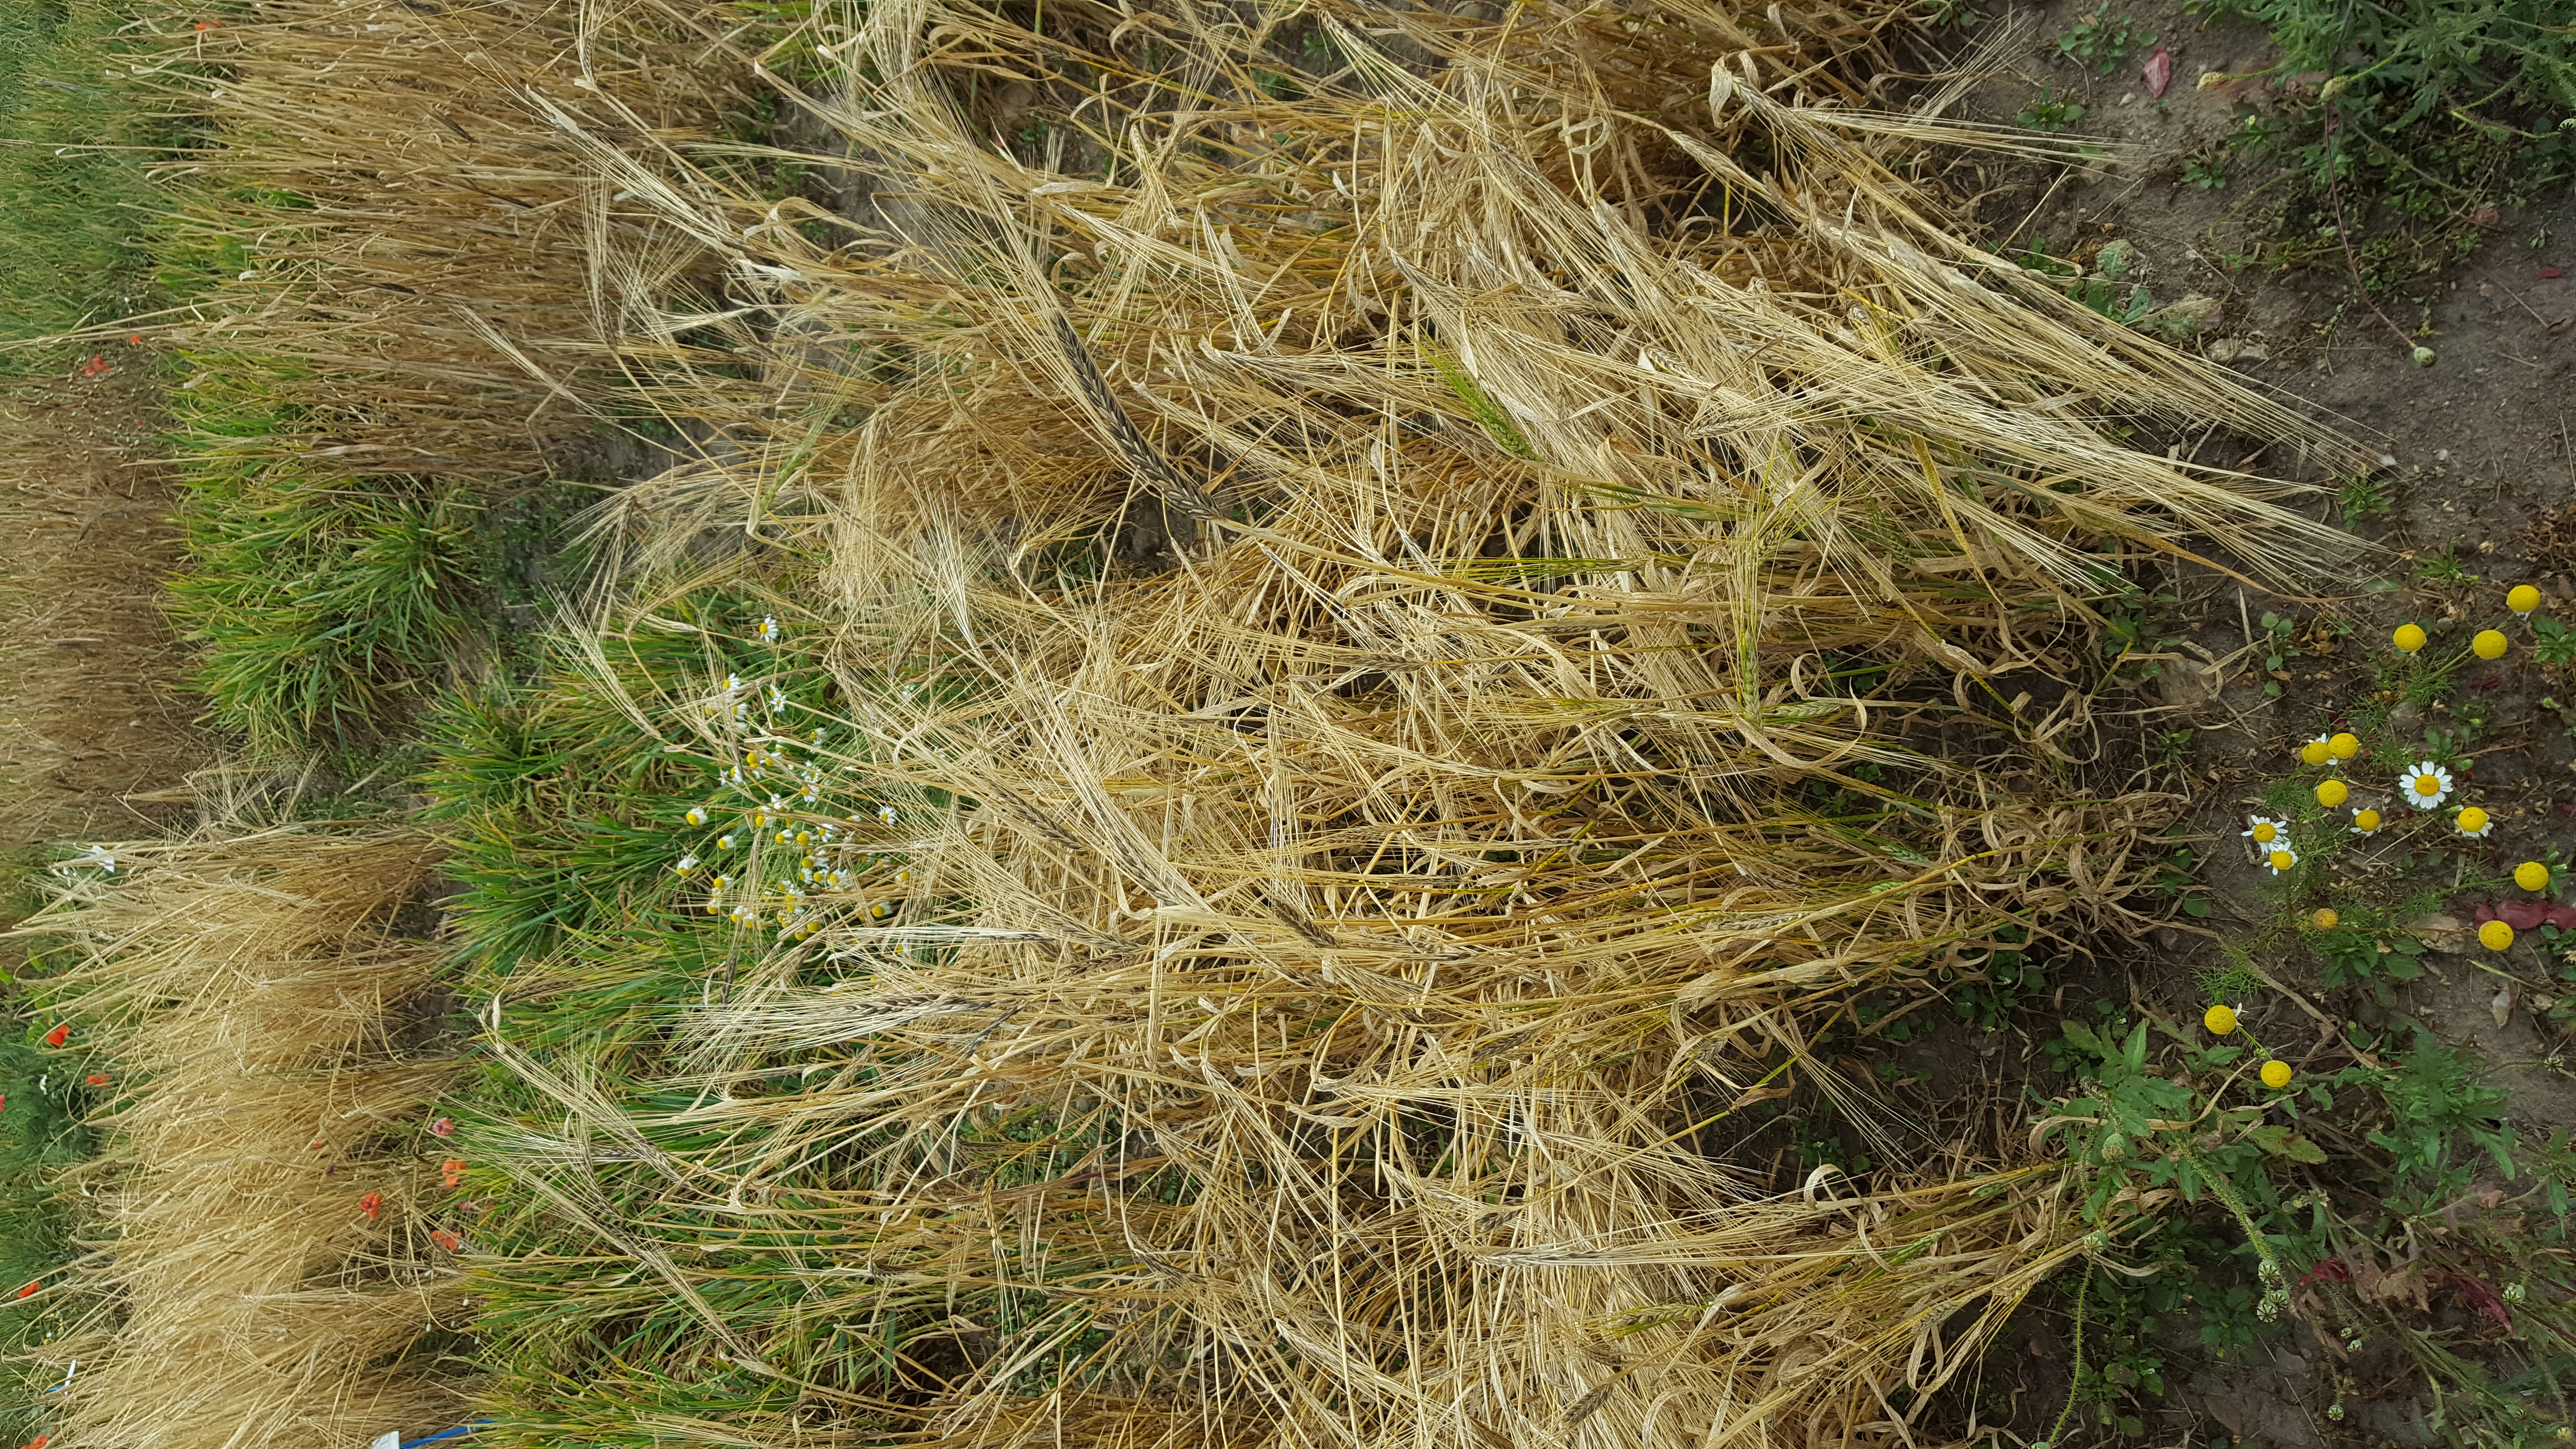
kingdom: Plantae
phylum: Tracheophyta
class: Liliopsida
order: Poales
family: Poaceae
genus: Hordeum
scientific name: Hordeum vulgare
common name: Common barley
